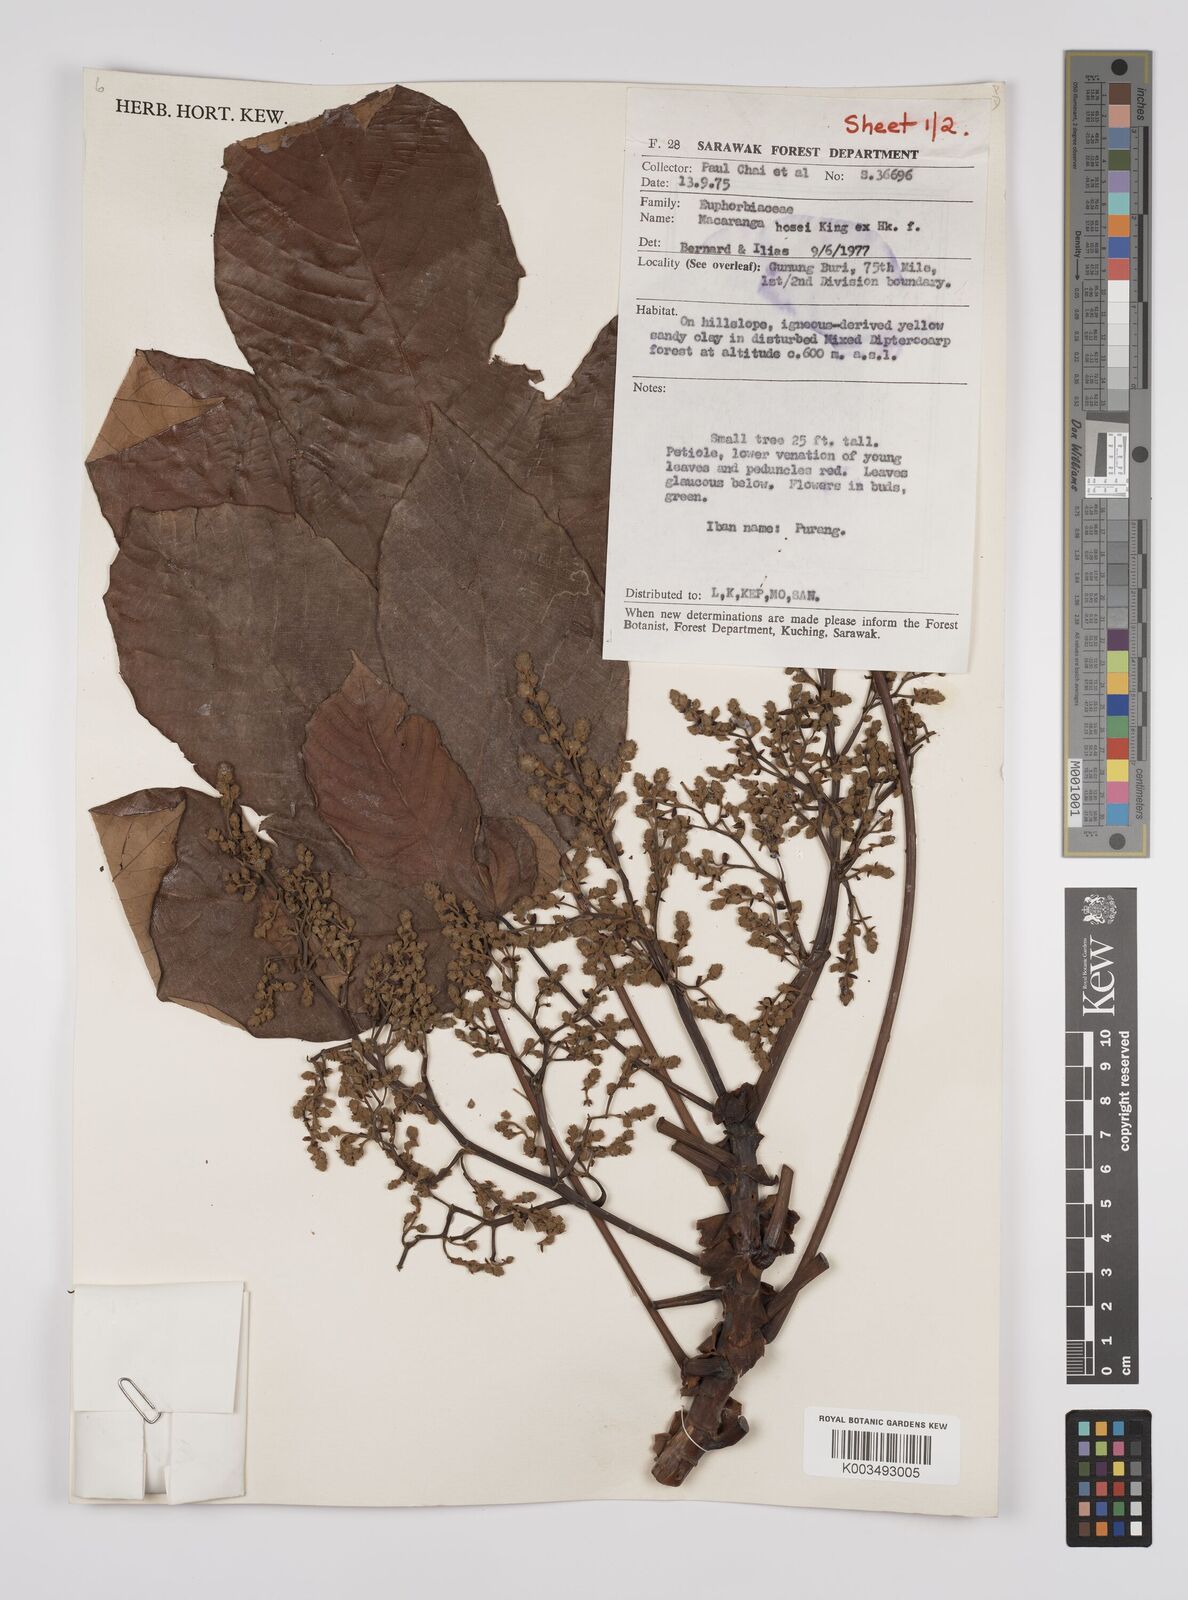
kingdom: Plantae
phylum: Tracheophyta
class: Magnoliopsida
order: Malpighiales
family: Euphorbiaceae
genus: Macaranga
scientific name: Macaranga hosei
